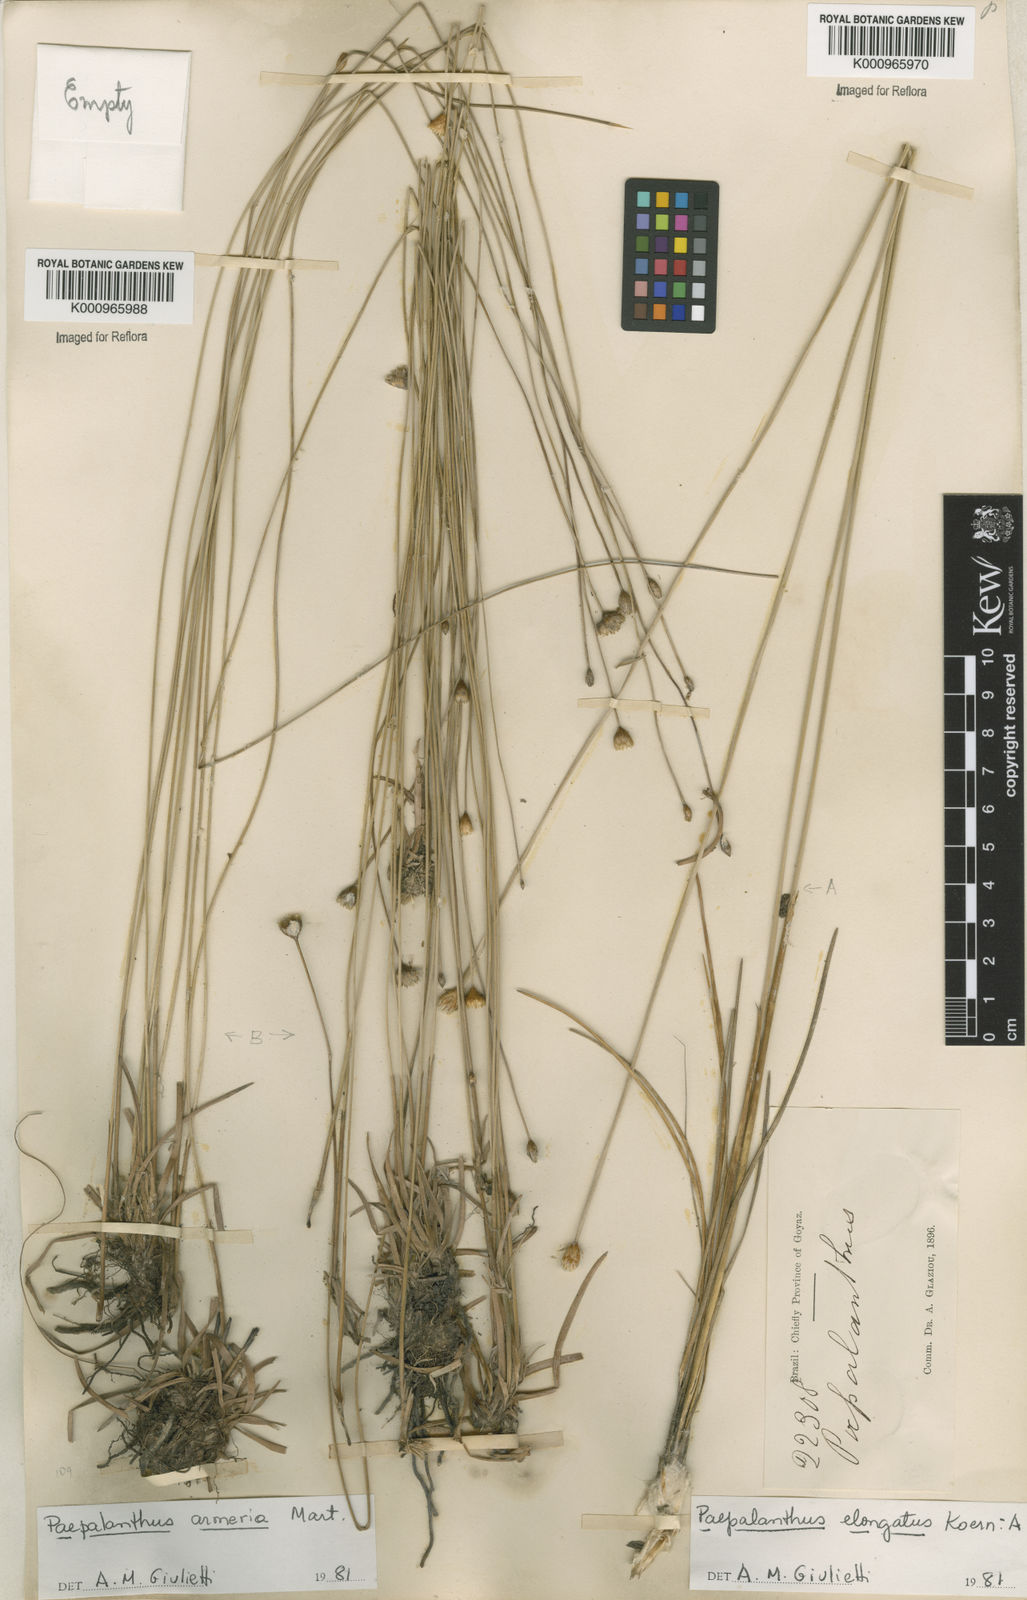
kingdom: Plantae
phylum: Tracheophyta
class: Liliopsida
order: Poales
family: Eriocaulaceae
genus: Paepalanthus
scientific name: Paepalanthus
